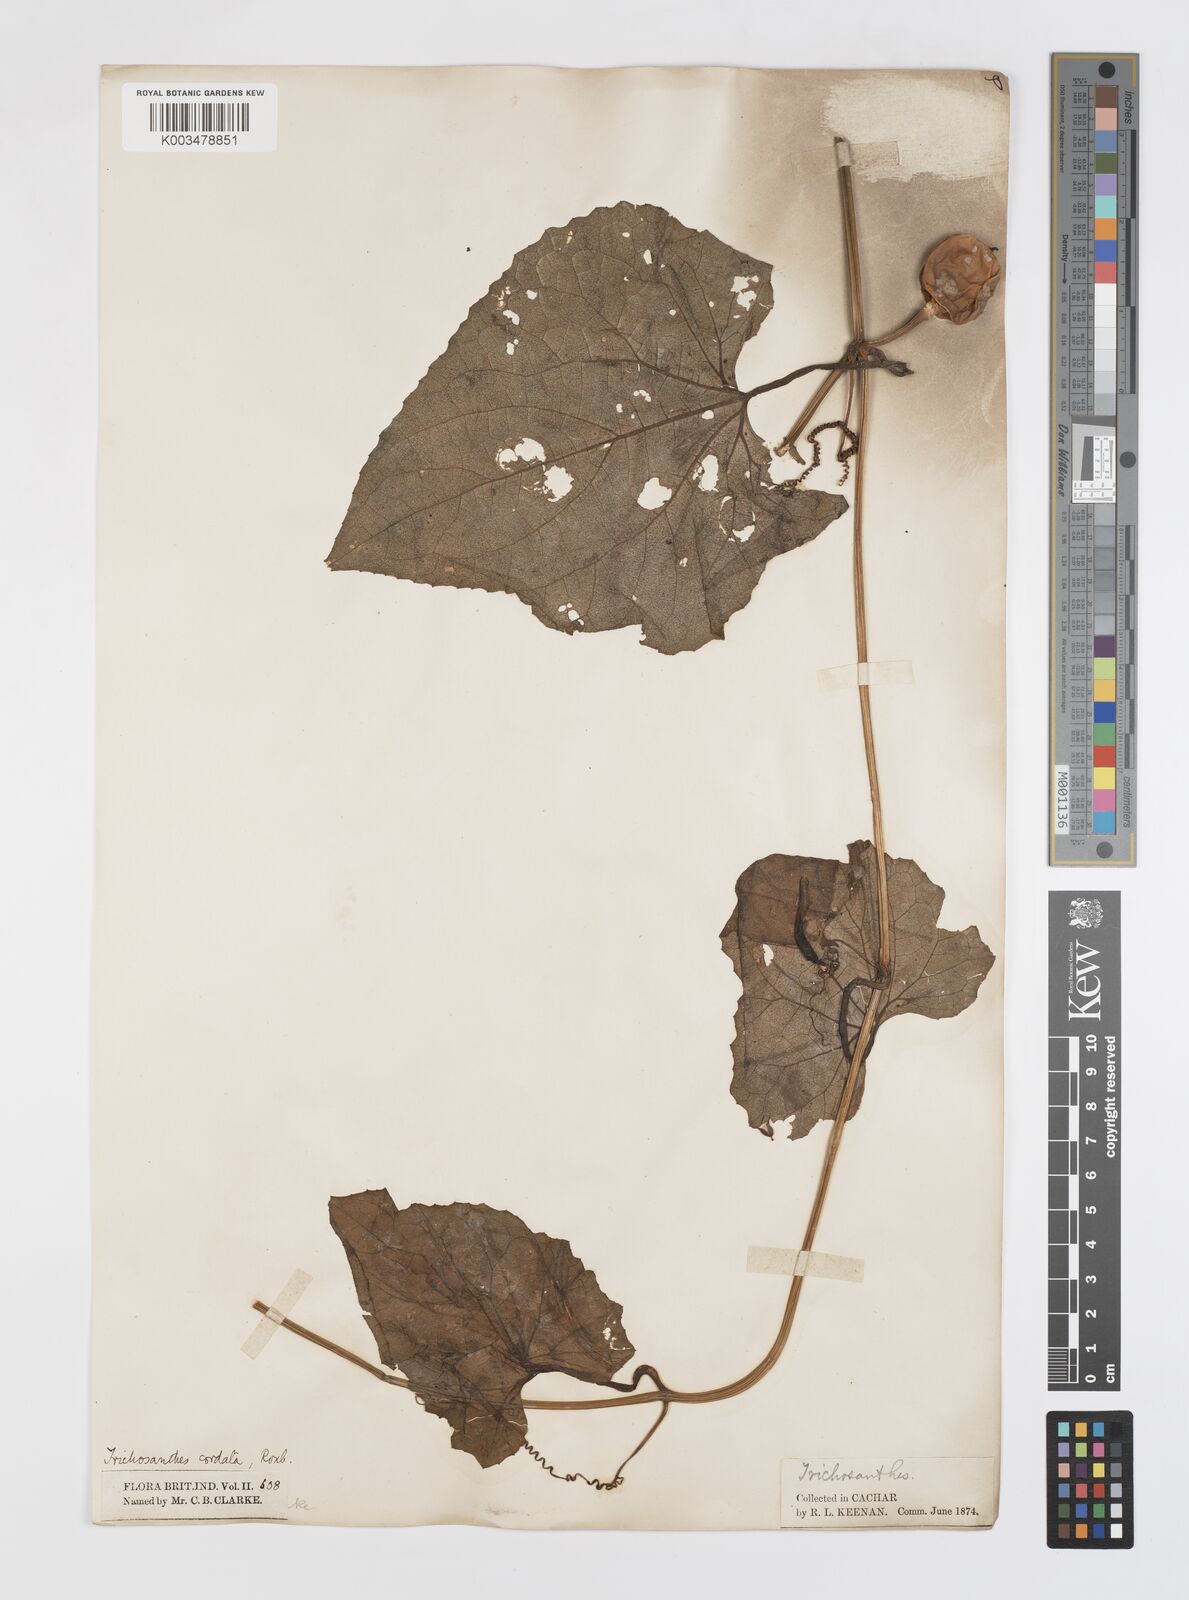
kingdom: Plantae
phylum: Tracheophyta
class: Magnoliopsida
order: Cucurbitales
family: Cucurbitaceae
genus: Trichosanthes
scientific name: Trichosanthes cordata
